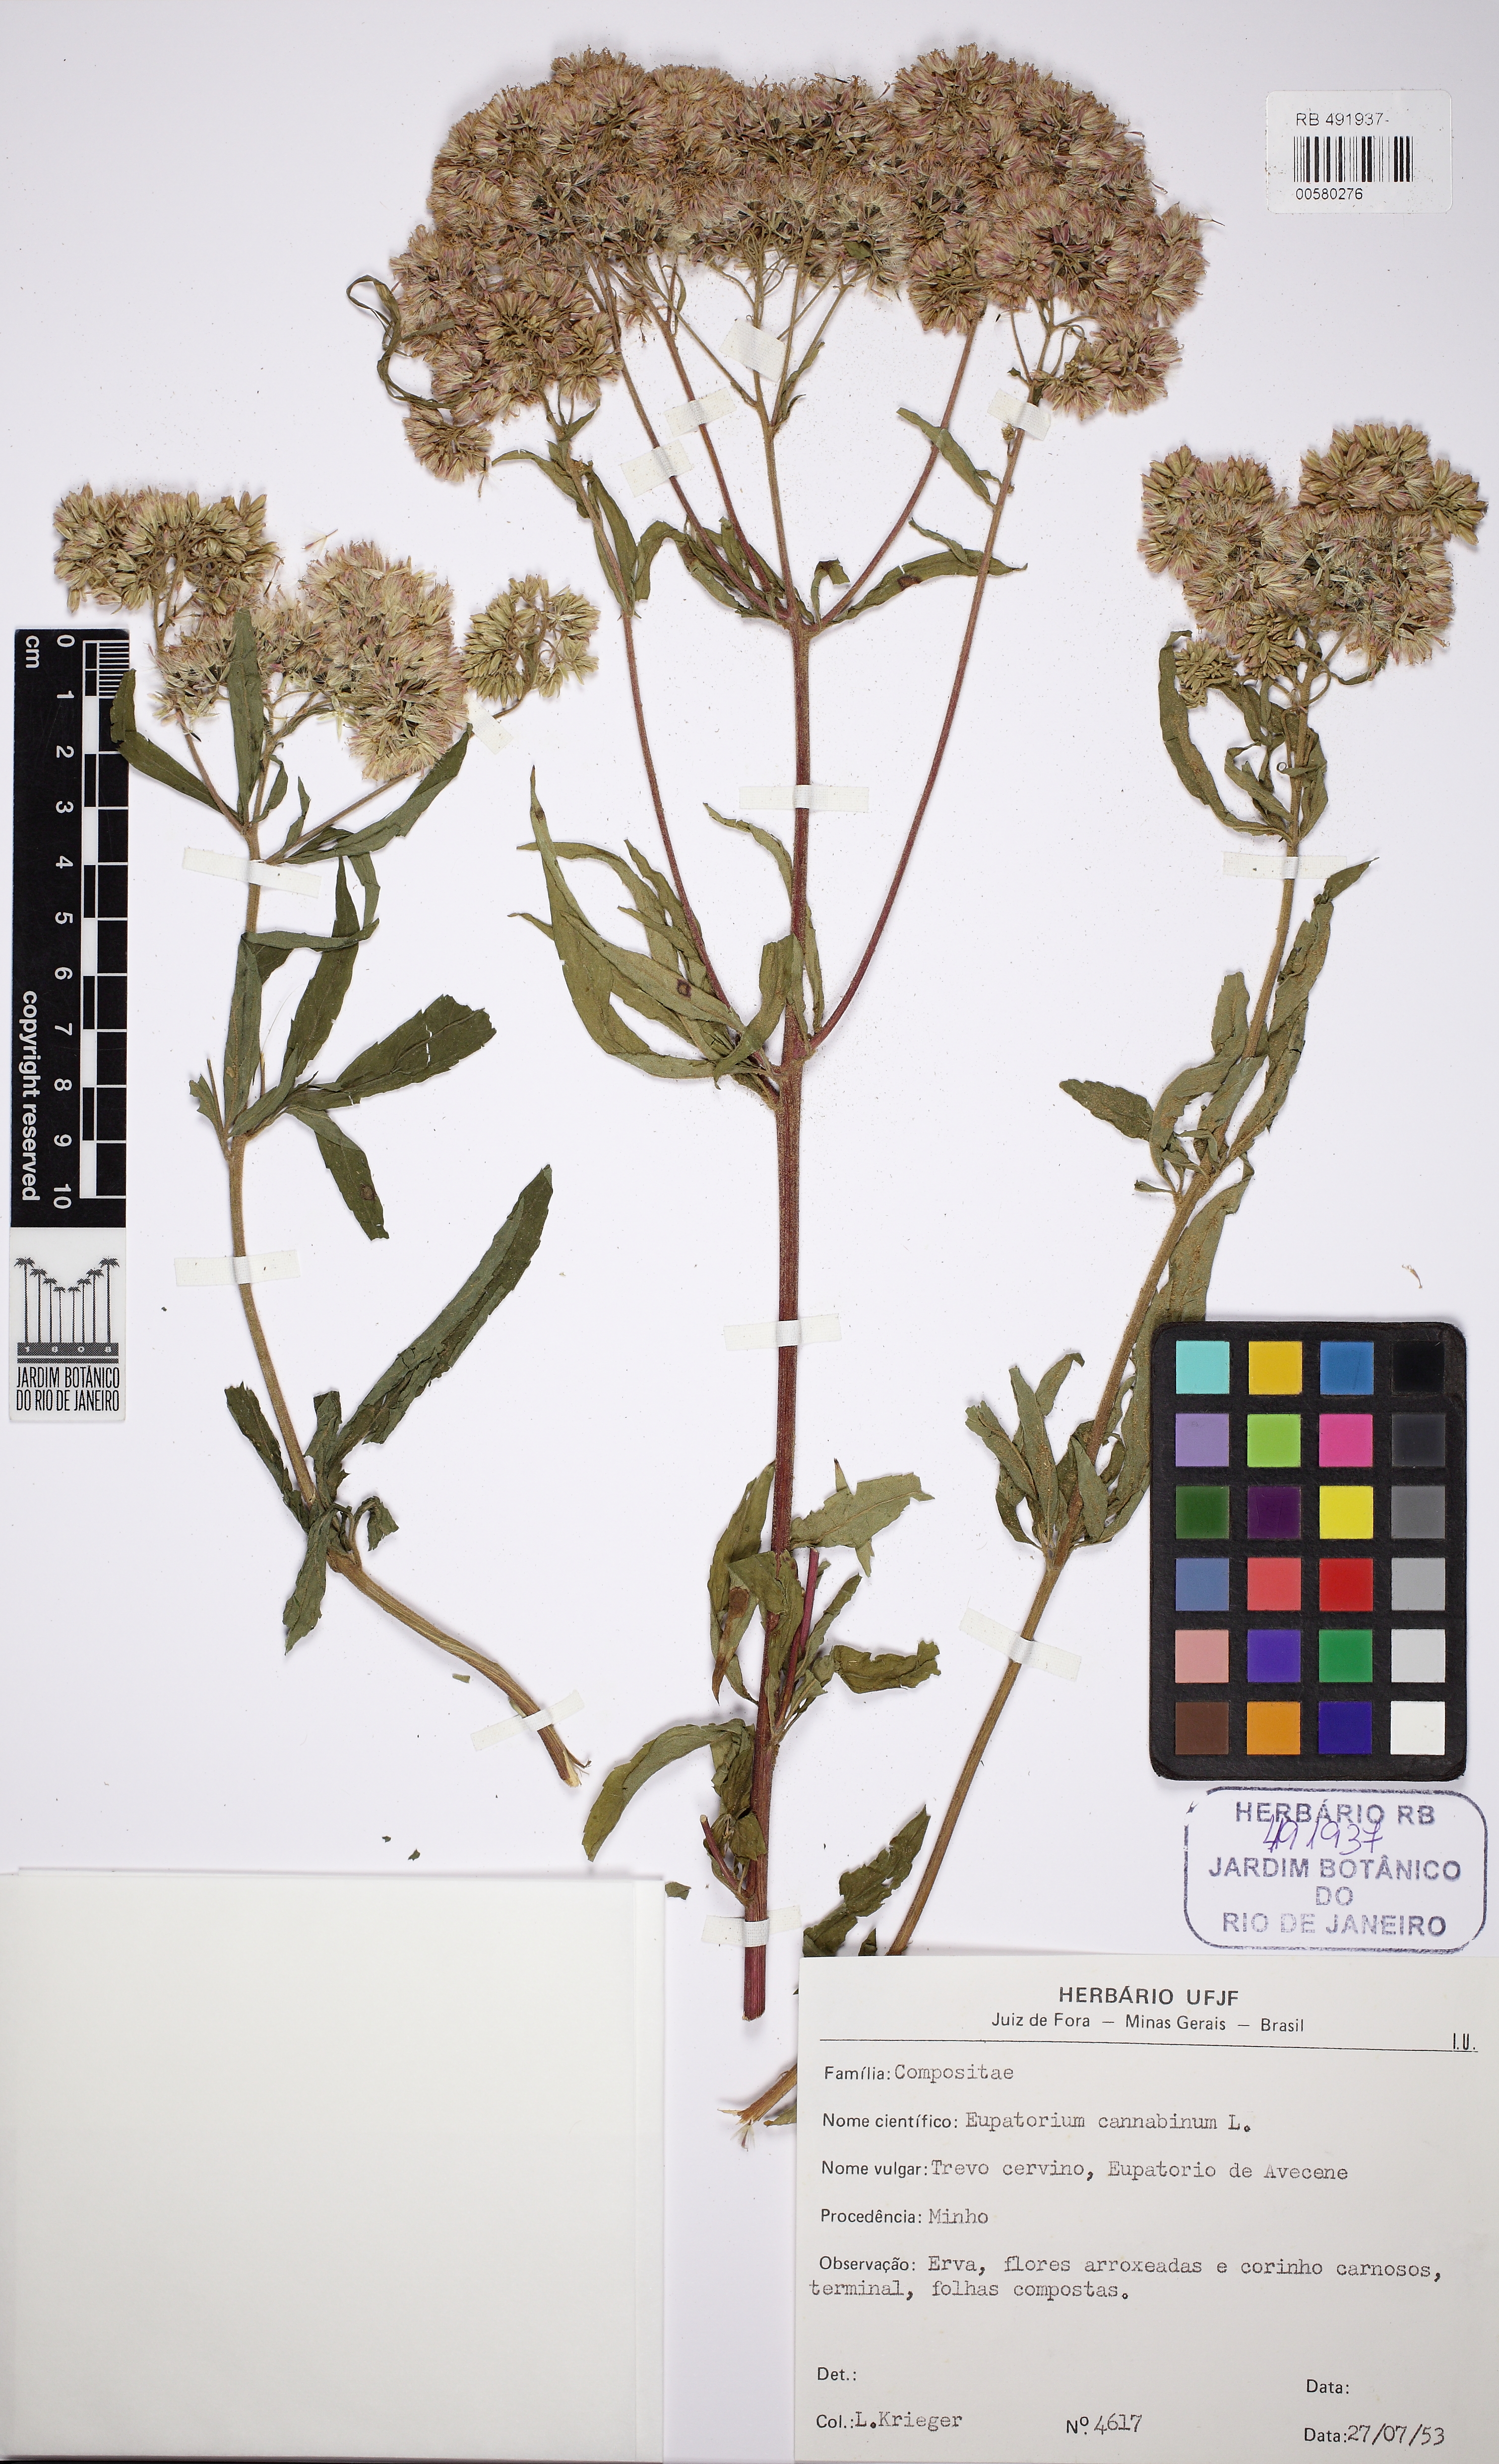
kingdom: Plantae
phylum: Tracheophyta
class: Magnoliopsida
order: Asterales
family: Asteraceae
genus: Eupatorium
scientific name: Eupatorium cannabinum
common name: Hemp-agrimony
